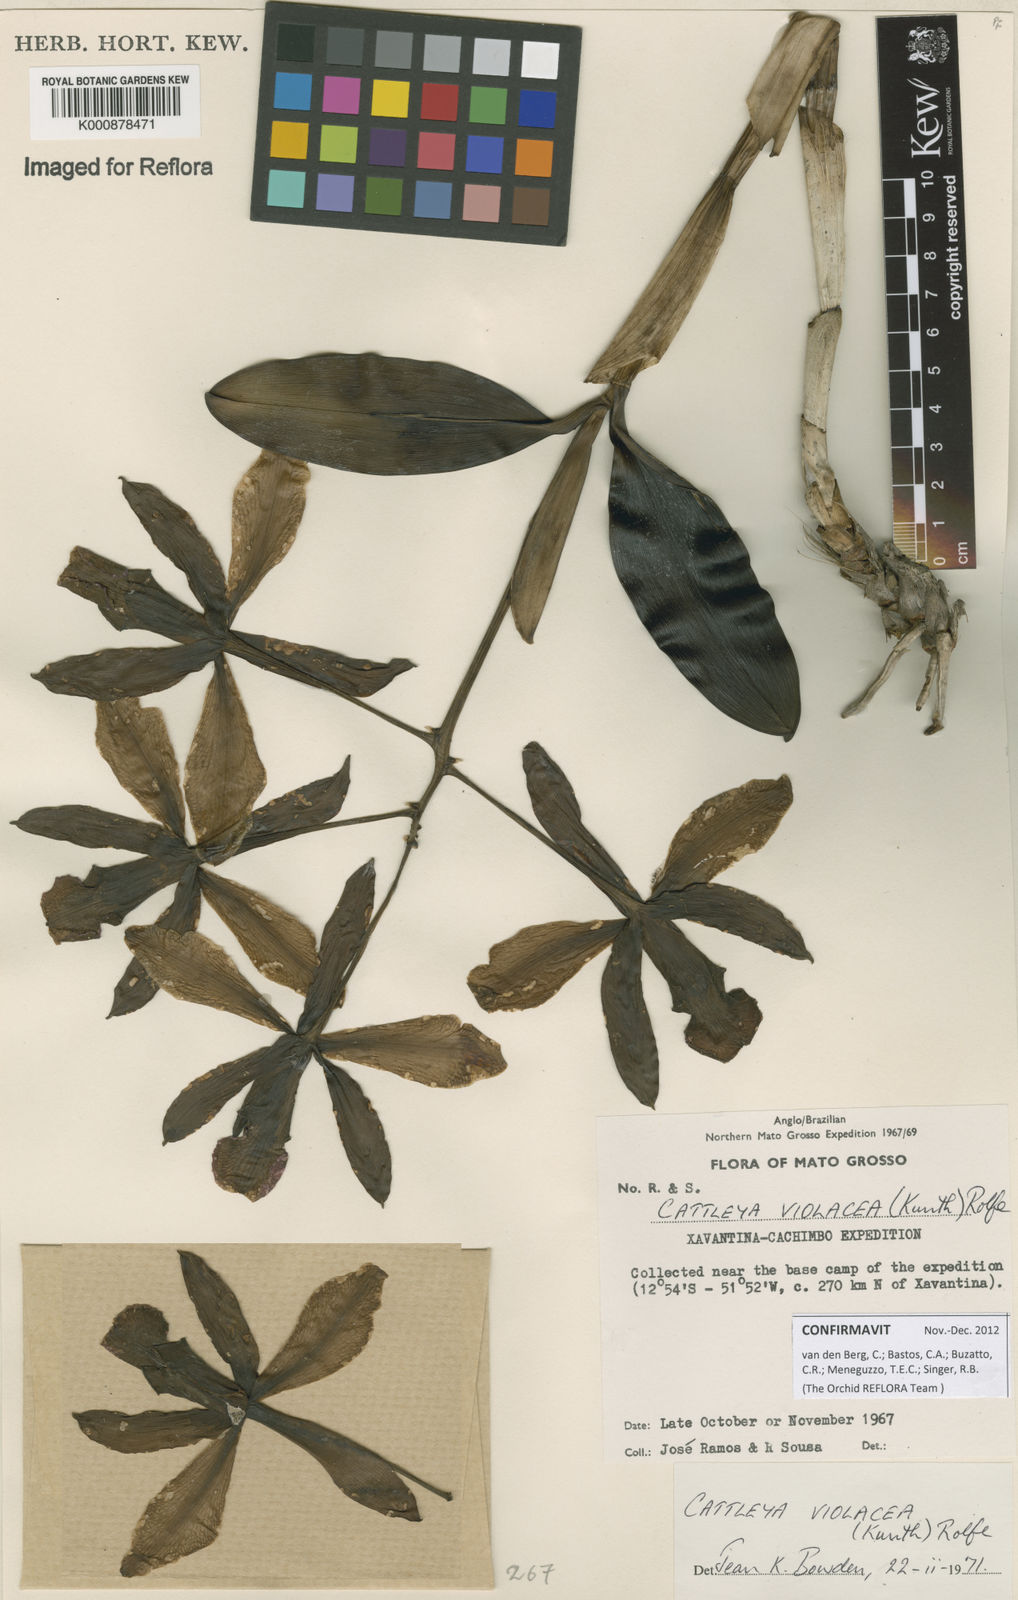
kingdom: Plantae
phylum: Tracheophyta
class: Liliopsida
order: Asparagales
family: Orchidaceae
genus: Cattleya
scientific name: Cattleya
